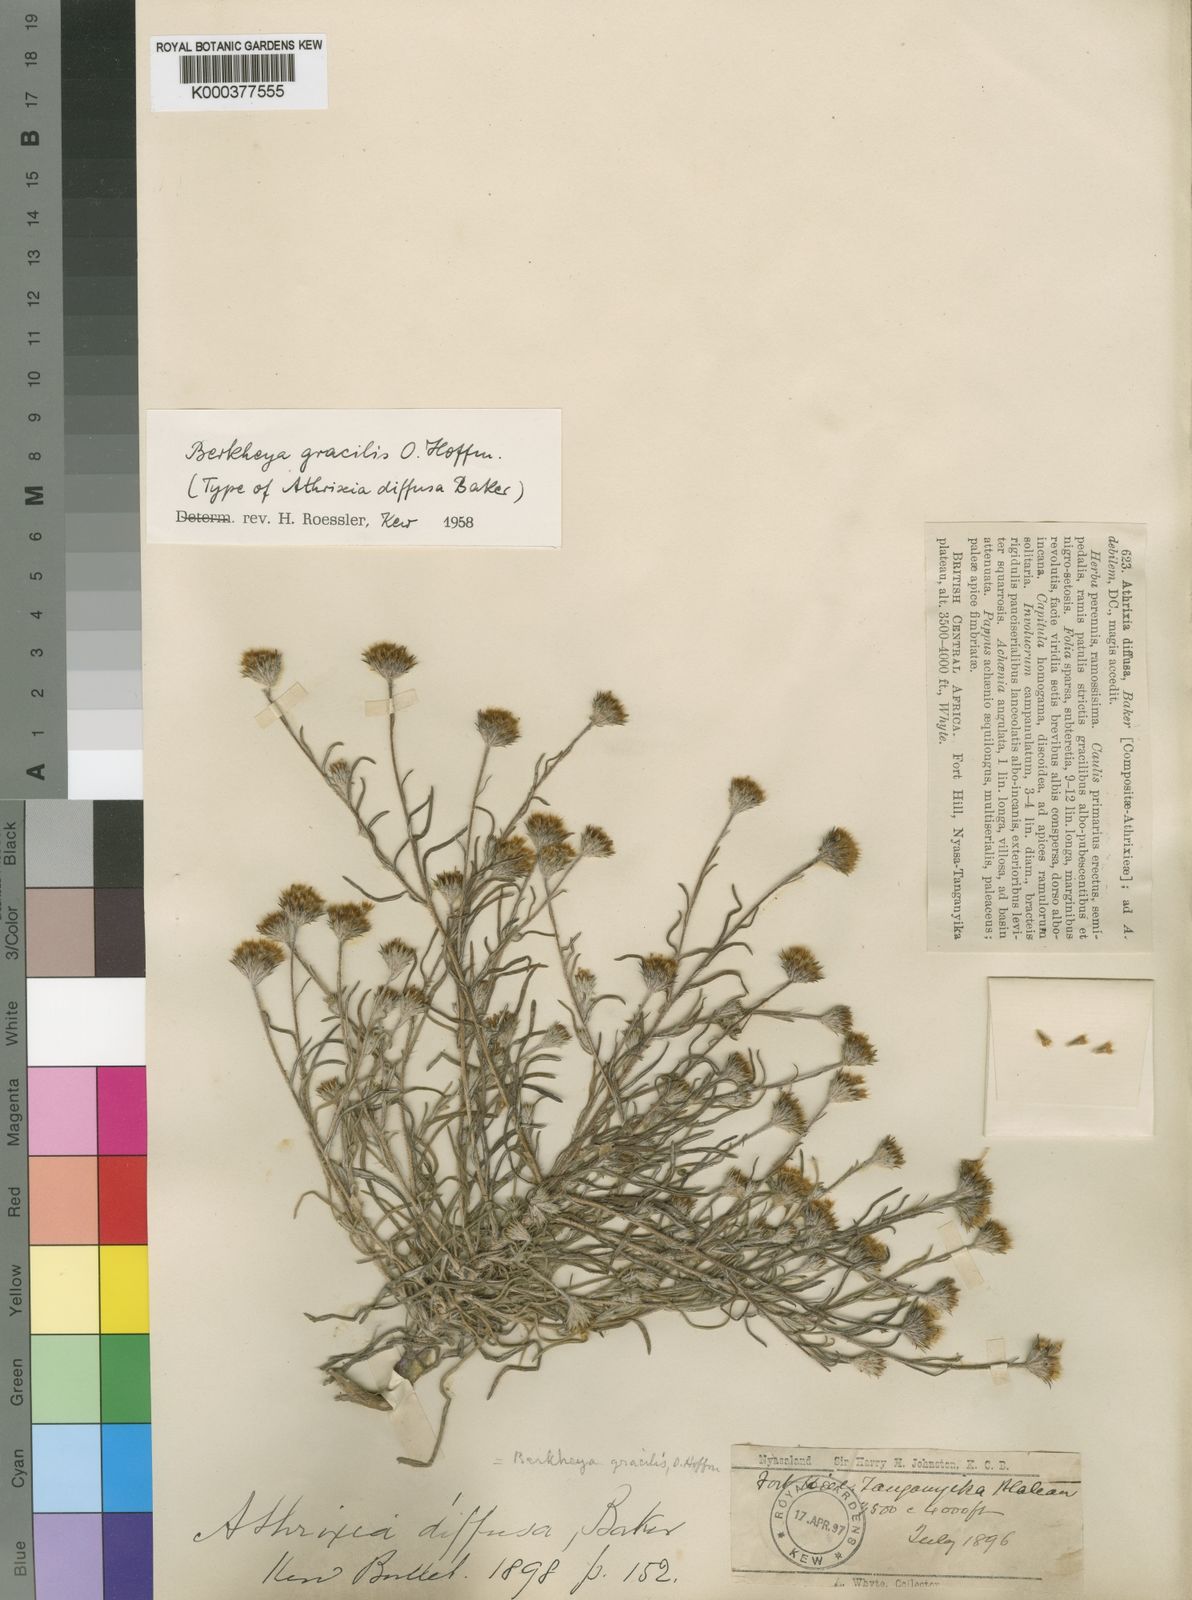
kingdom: Plantae
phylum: Tracheophyta
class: Magnoliopsida
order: Asterales
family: Asteraceae
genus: Gorteria
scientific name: Gorteria gracilis
